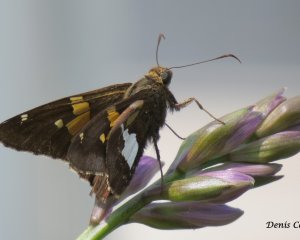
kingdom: Animalia
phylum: Arthropoda
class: Insecta
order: Lepidoptera
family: Hesperiidae
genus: Epargyreus
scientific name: Epargyreus clarus
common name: Silver-spotted Skipper
